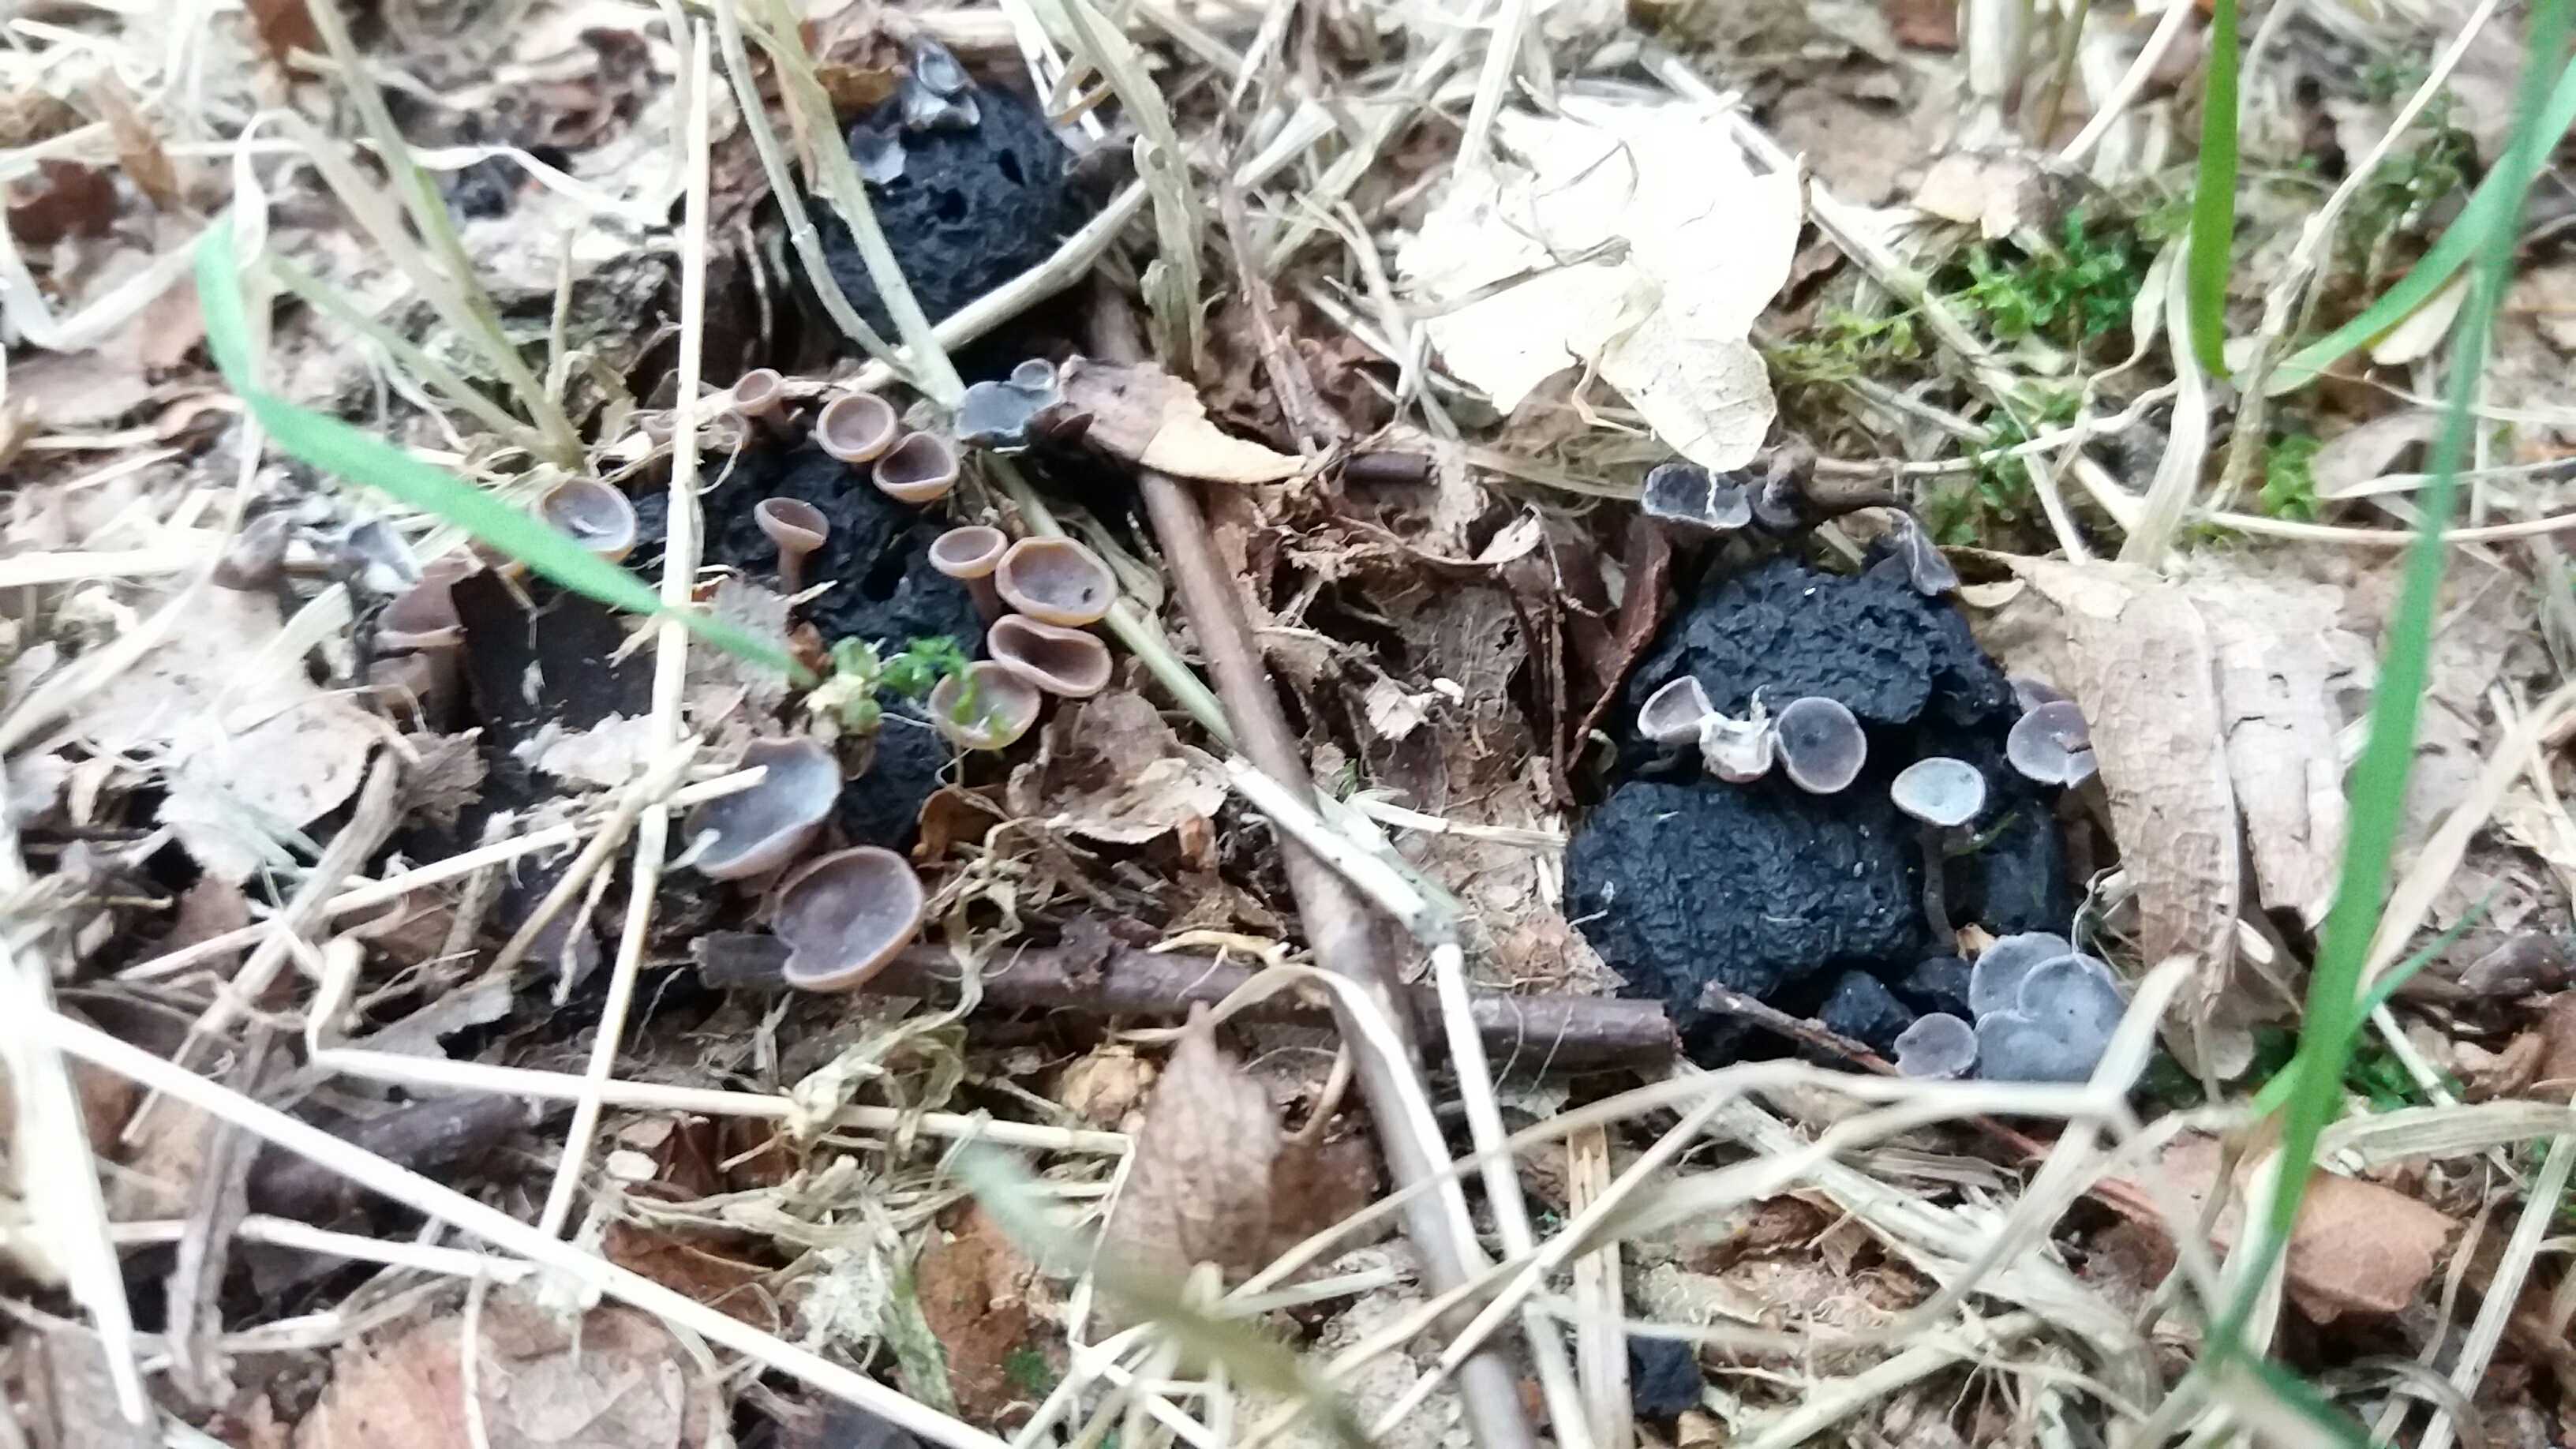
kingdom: Fungi
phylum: Ascomycota
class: Leotiomycetes
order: Helotiales
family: Sclerotiniaceae
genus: Ciboria
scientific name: Ciboria batschiana
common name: agern-knoldskive
